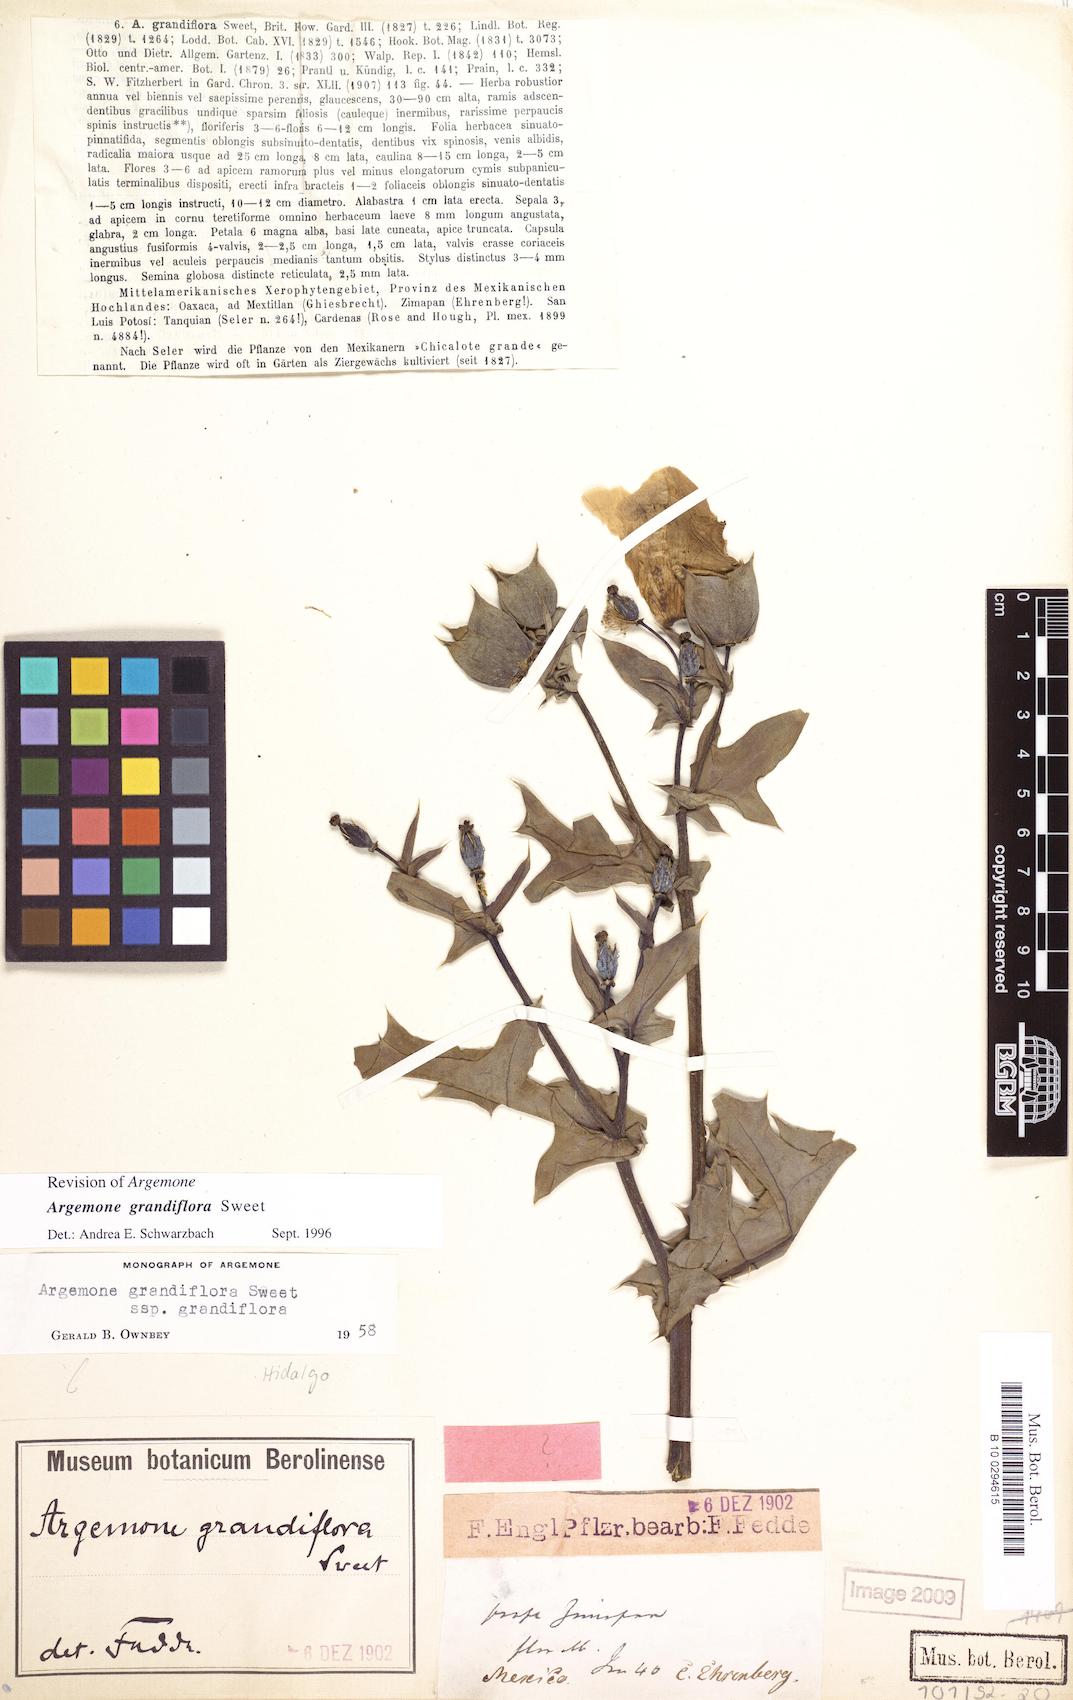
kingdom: Plantae
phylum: Tracheophyta
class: Magnoliopsida
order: Ranunculales
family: Papaveraceae
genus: Argemone
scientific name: Argemone grandiflora
